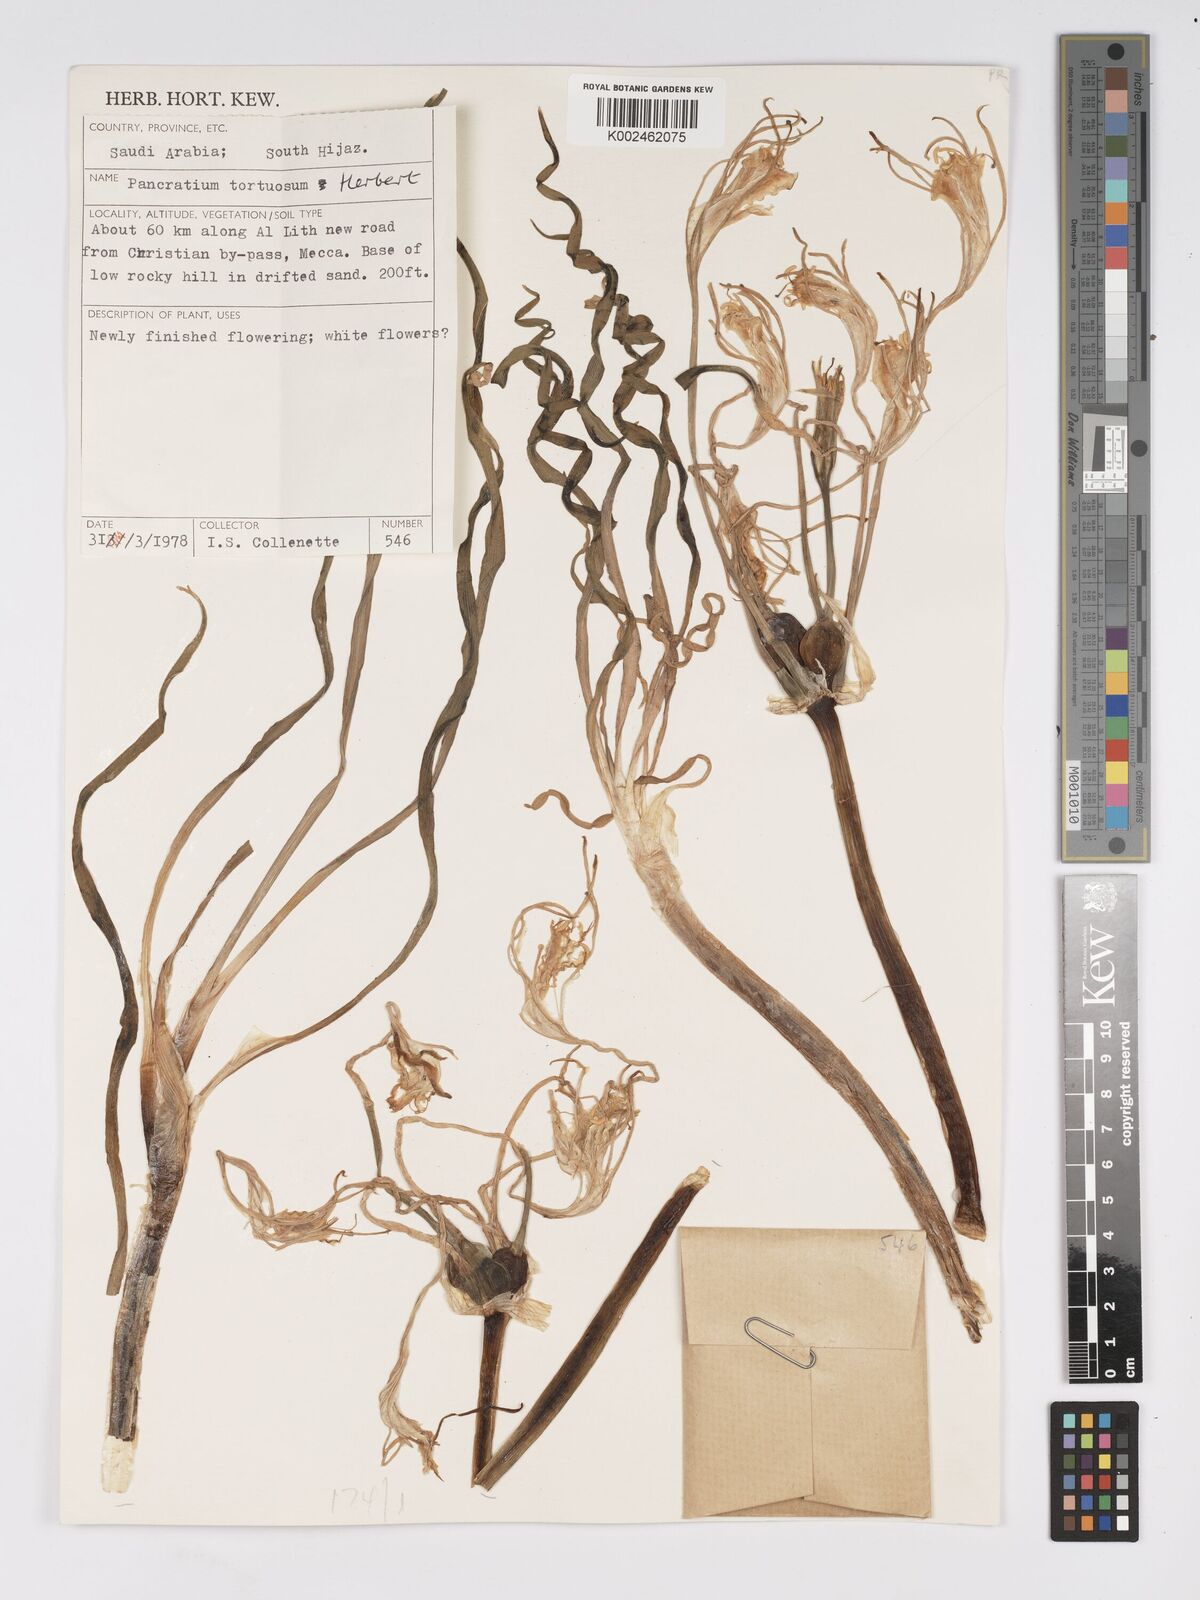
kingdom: Plantae
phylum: Tracheophyta
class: Liliopsida
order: Asparagales
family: Amaryllidaceae
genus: Pancratium
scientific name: Pancratium tortuosum
